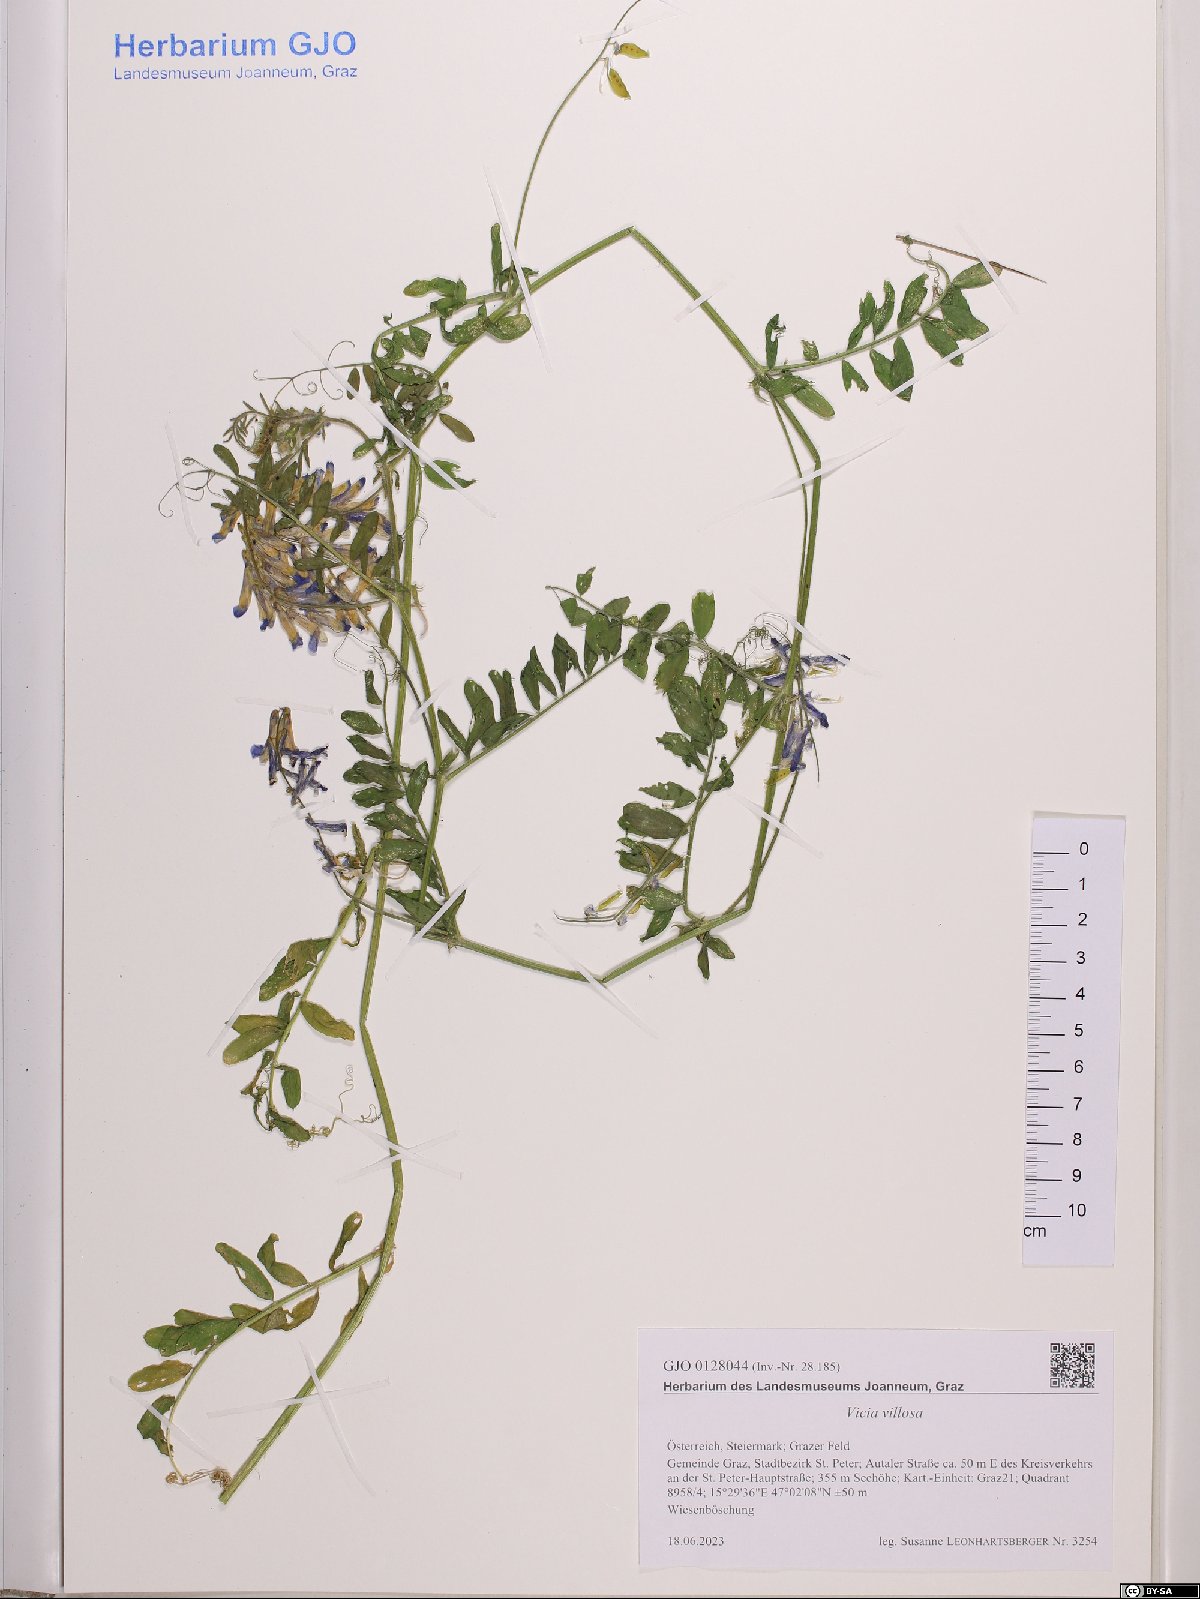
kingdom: Plantae
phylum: Tracheophyta
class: Magnoliopsida
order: Fabales
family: Fabaceae
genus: Vicia
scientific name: Vicia villosa
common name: Fodder vetch
